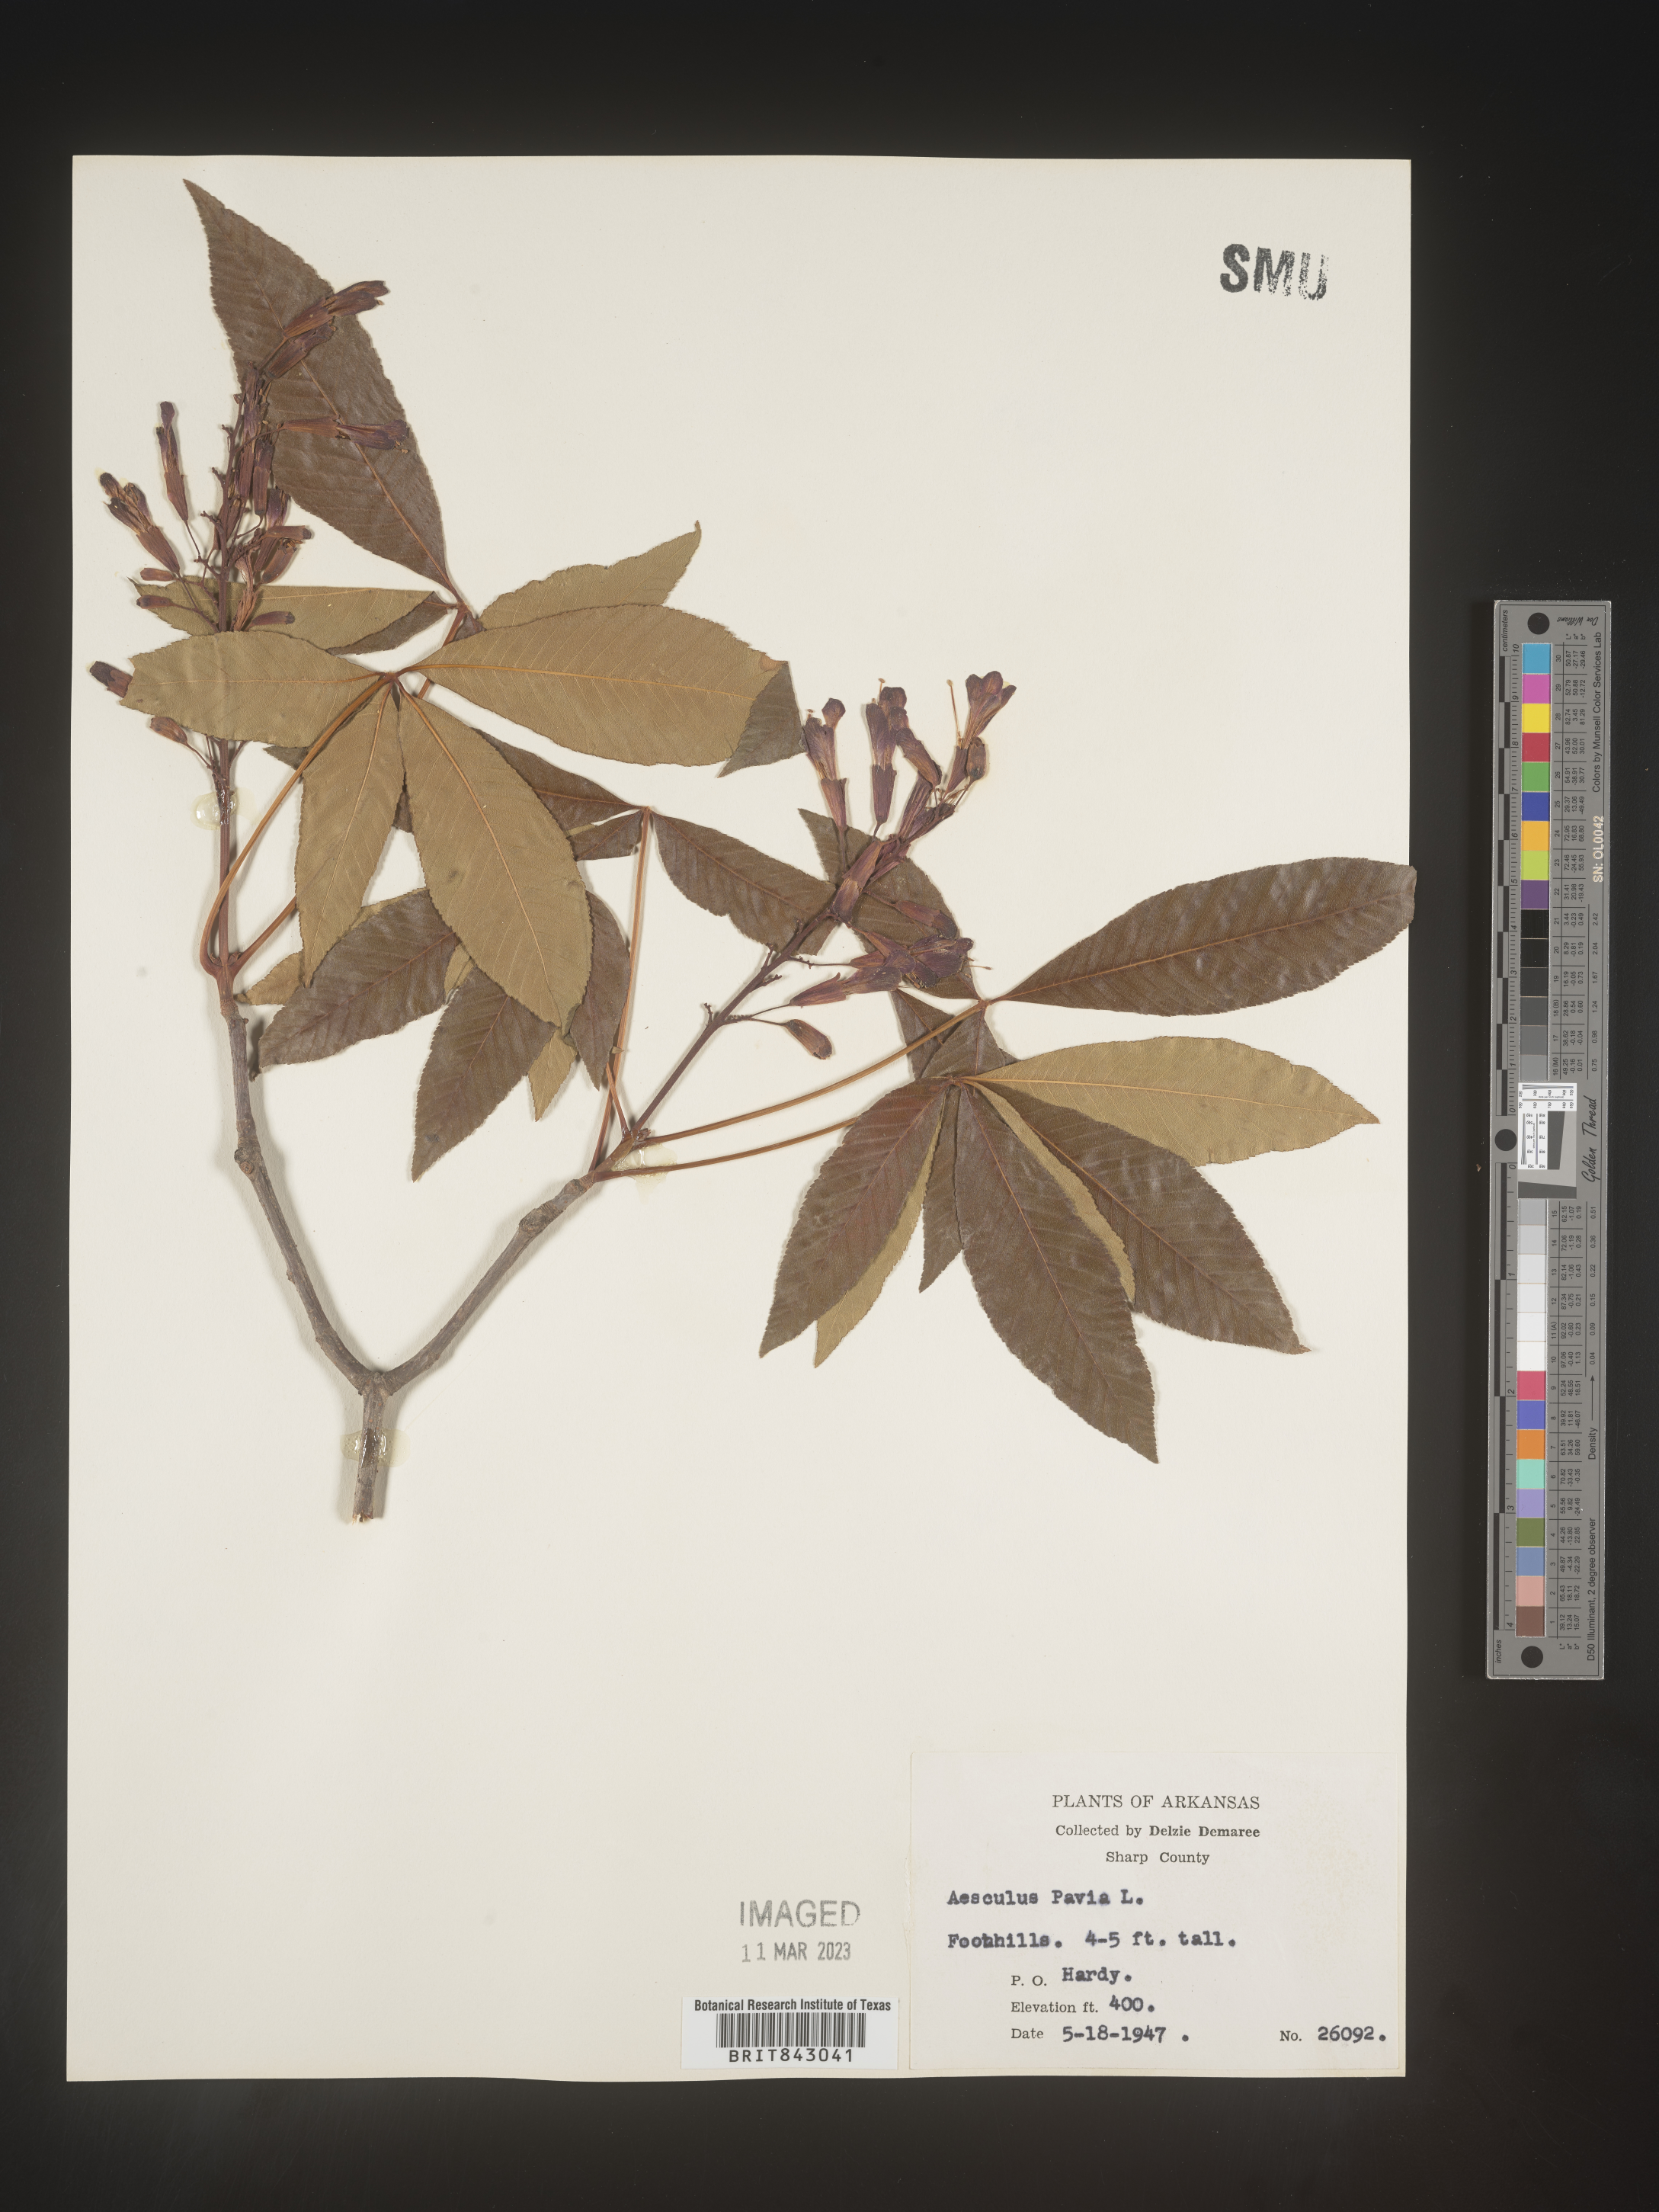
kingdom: Plantae
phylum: Tracheophyta
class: Magnoliopsida
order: Sapindales
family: Sapindaceae
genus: Aesculus
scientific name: Aesculus pavia
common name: Red buckeye
